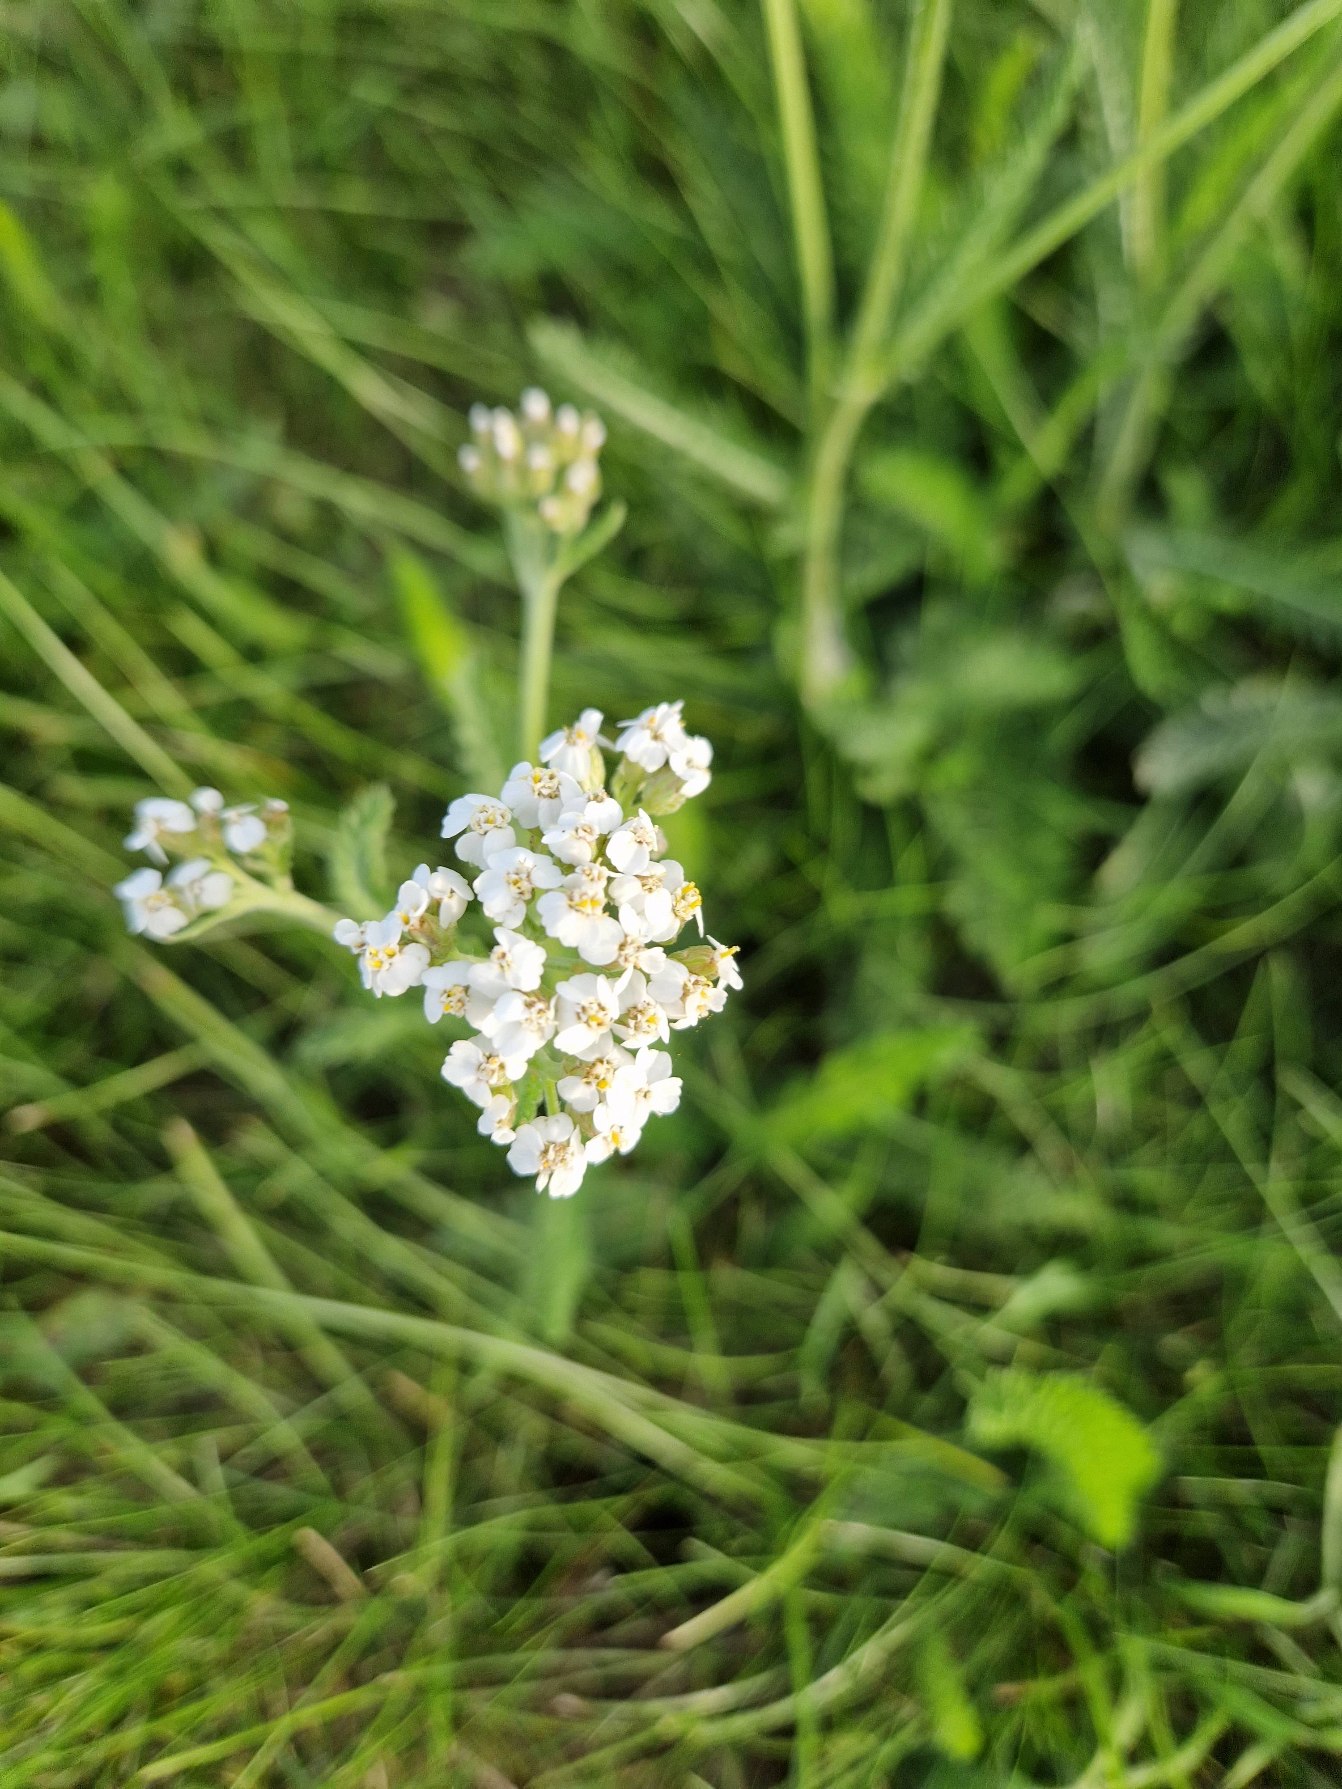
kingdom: Plantae
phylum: Tracheophyta
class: Magnoliopsida
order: Asterales
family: Asteraceae
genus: Achillea
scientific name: Achillea millefolium
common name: Almindelig røllike
